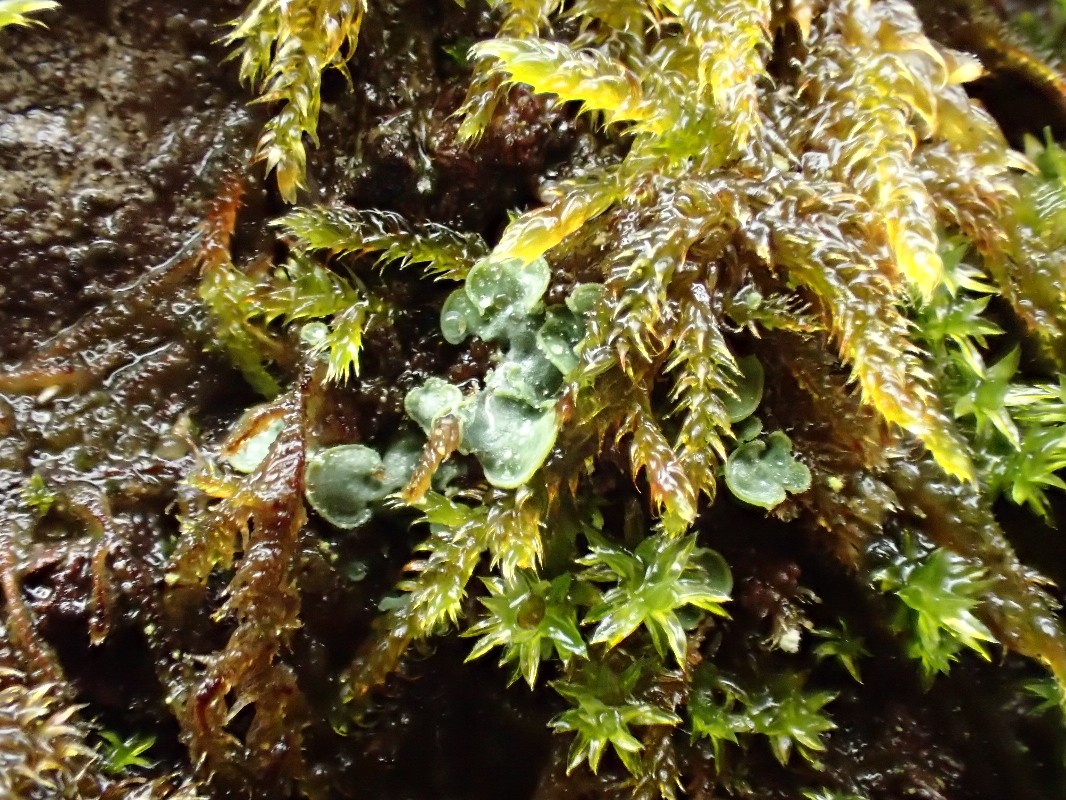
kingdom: Fungi
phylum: Ascomycota
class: Eurotiomycetes
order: Verrucariales
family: Verrucariaceae
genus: Normandina
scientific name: Normandina pulchella
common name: smuk konfettilav
